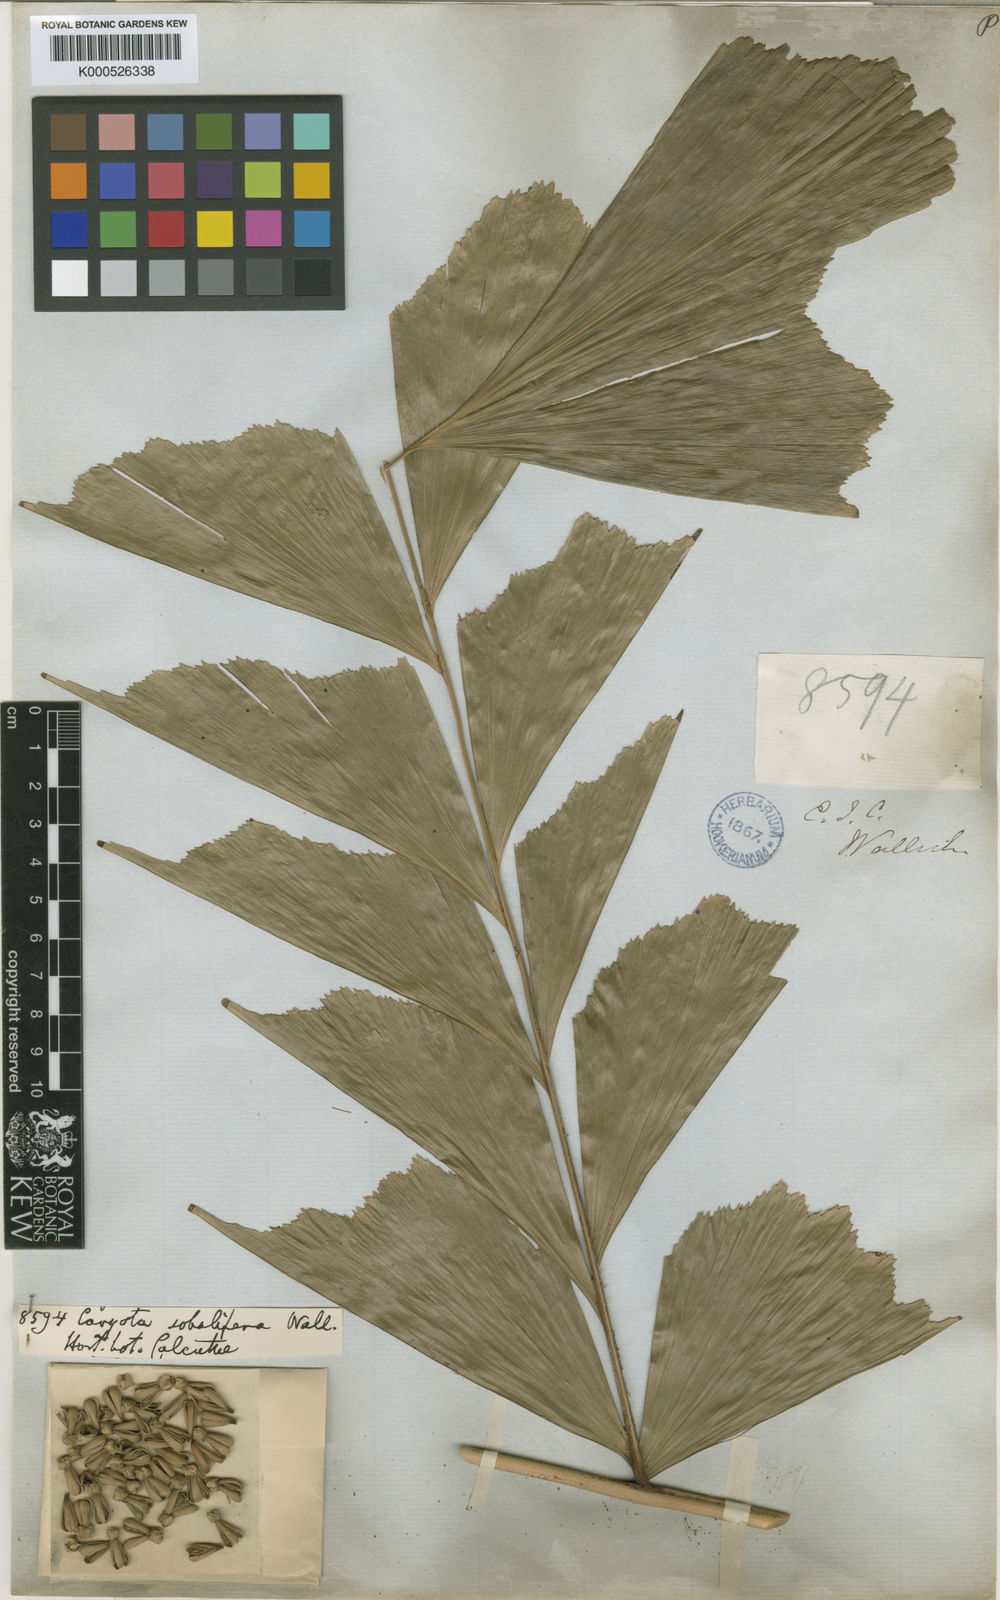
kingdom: Plantae
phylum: Tracheophyta
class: Liliopsida
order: Arecales
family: Arecaceae
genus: Caryota
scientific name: Caryota mitis
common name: Burmese fishtail palm
